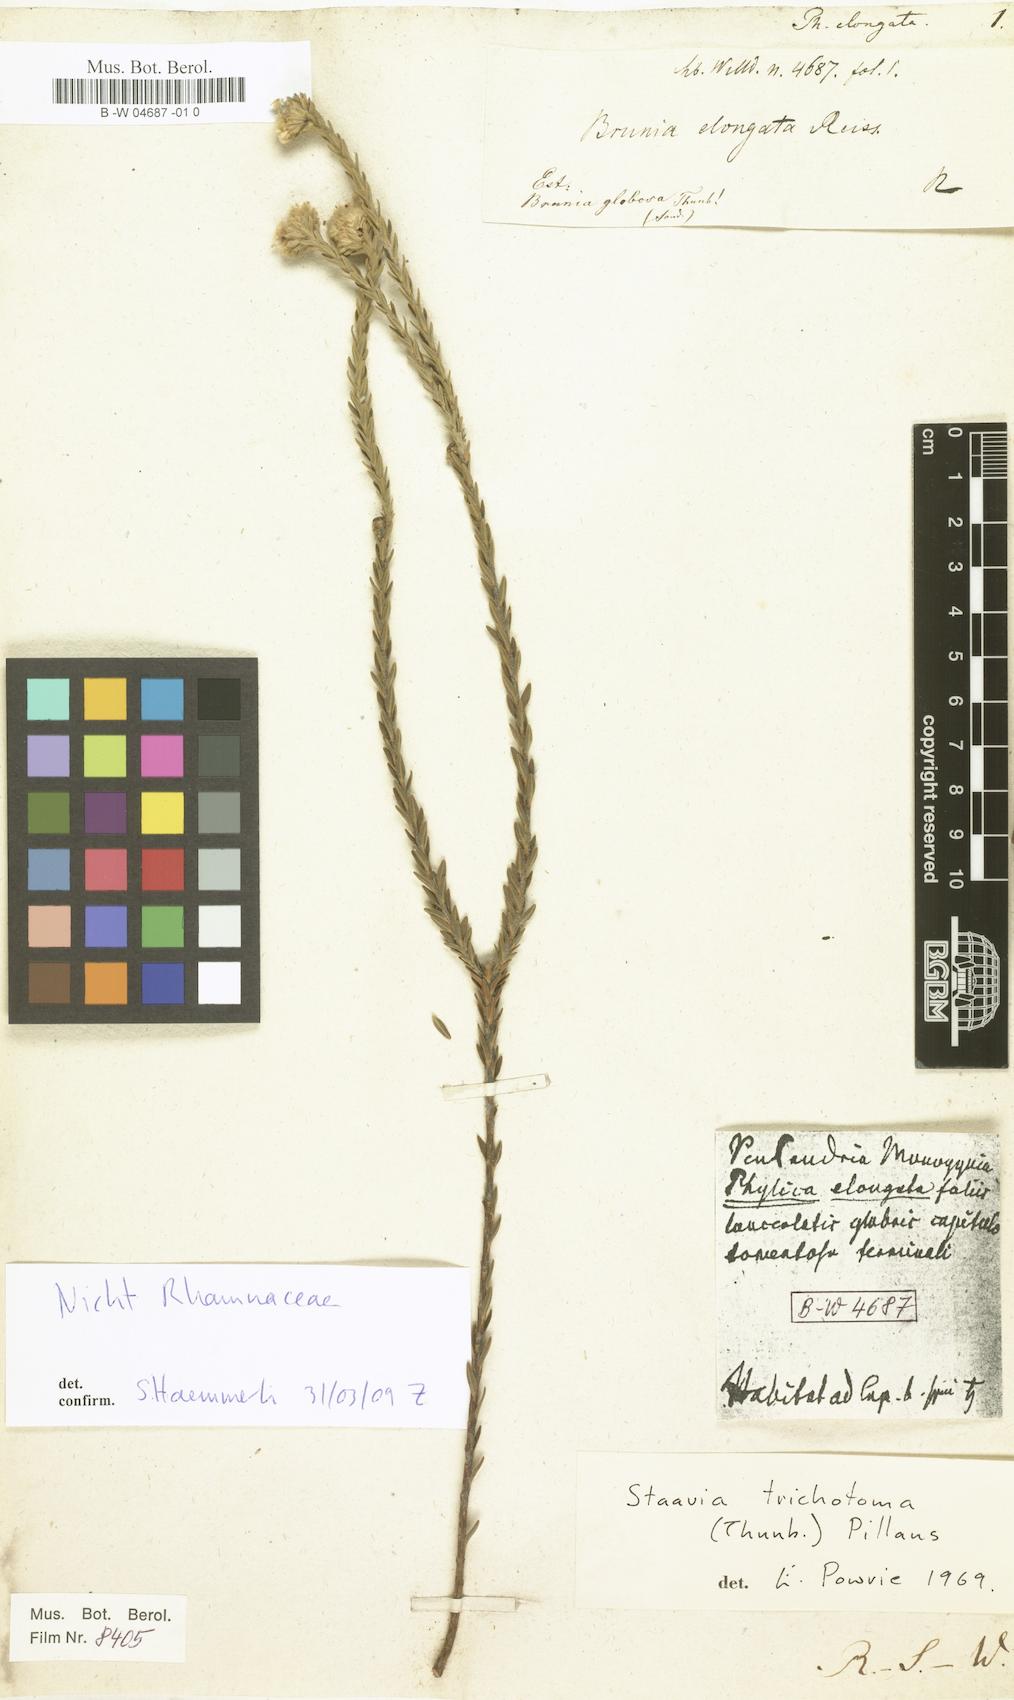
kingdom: Plantae
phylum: Tracheophyta
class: Magnoliopsida
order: Rosales
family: Rhamnaceae
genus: Phylica
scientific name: Phylica spicata
